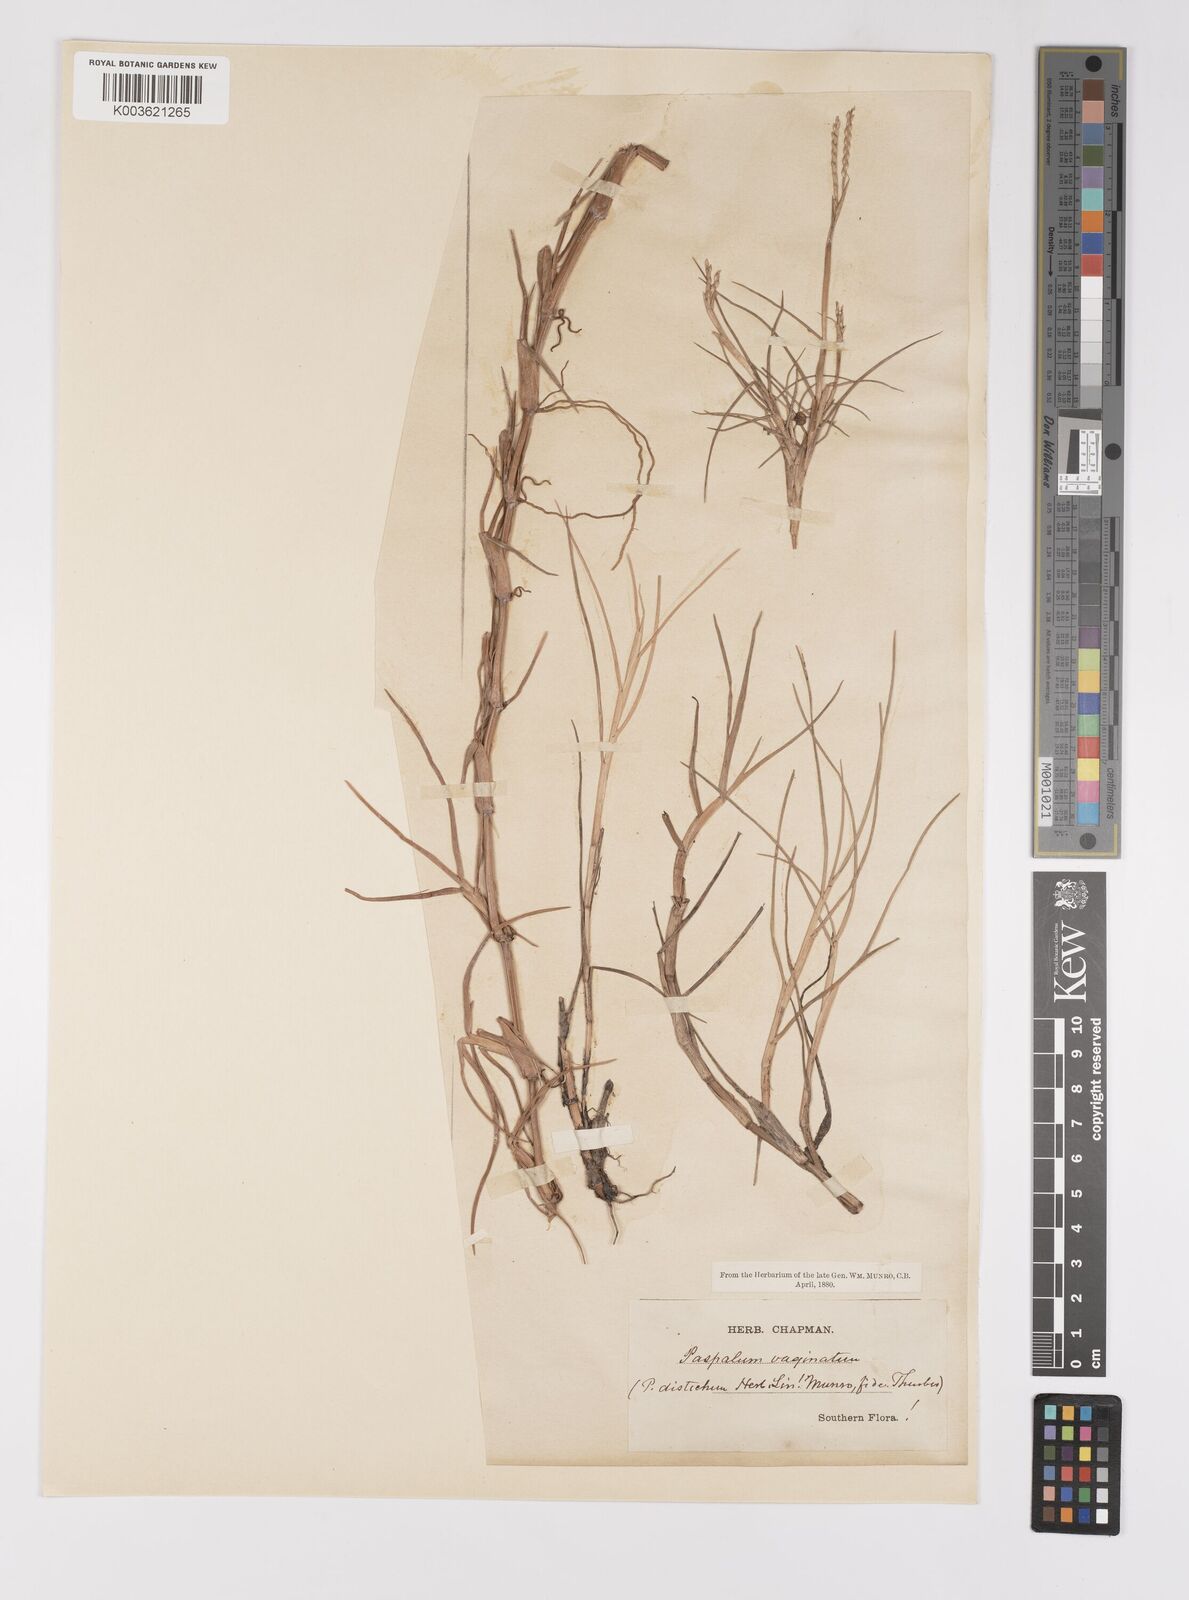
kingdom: Plantae
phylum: Tracheophyta
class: Liliopsida
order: Poales
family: Poaceae
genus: Paspalum
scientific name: Paspalum vaginatum
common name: Seashore paspalum
